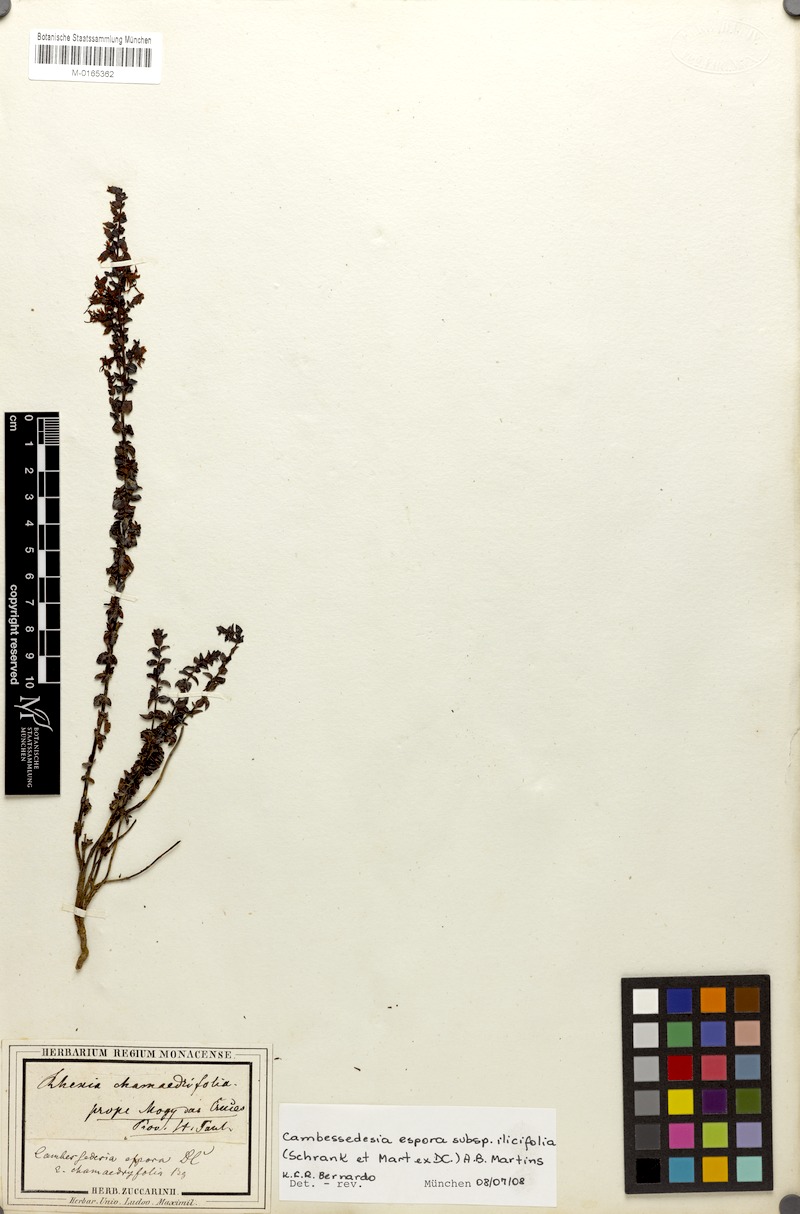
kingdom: Plantae
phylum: Tracheophyta
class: Magnoliopsida
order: Myrtales
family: Melastomataceae
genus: Cambessedesia
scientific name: Cambessedesia espora
